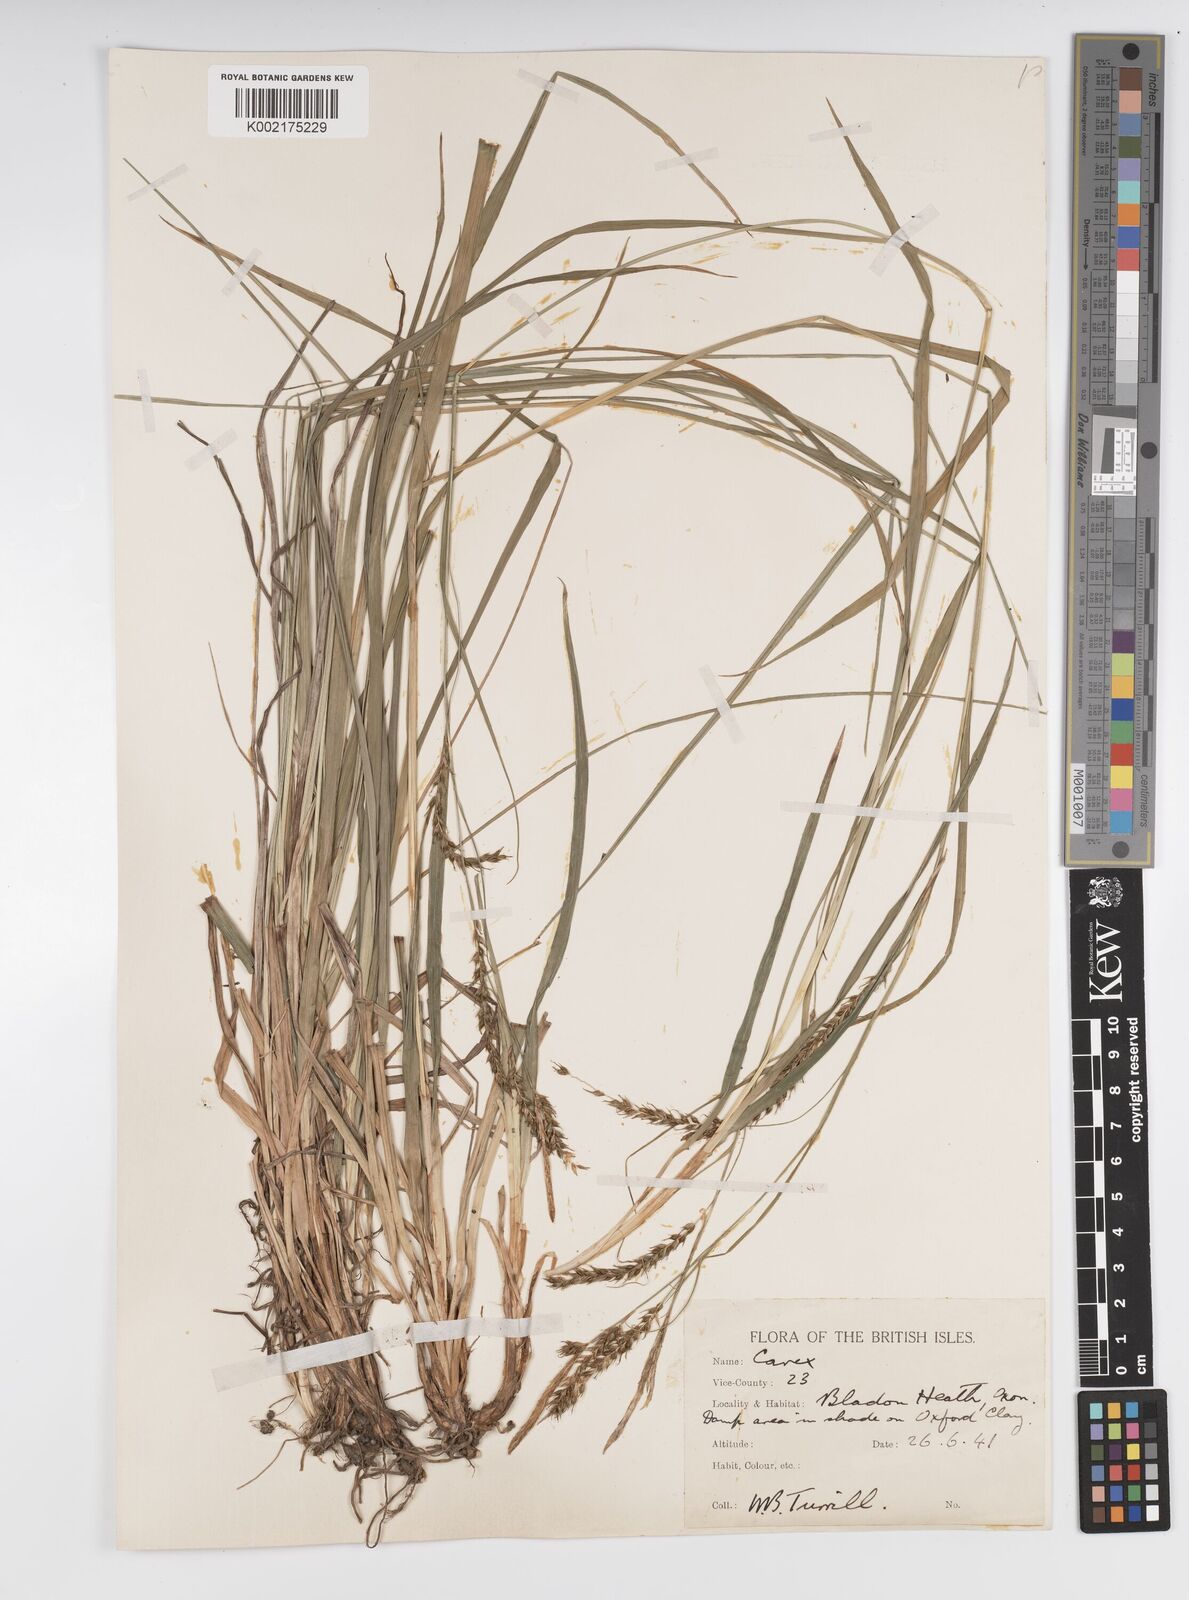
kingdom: Plantae
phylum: Tracheophyta
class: Liliopsida
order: Poales
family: Cyperaceae
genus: Carex
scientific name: Carex sylvatica
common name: Wood-sedge
